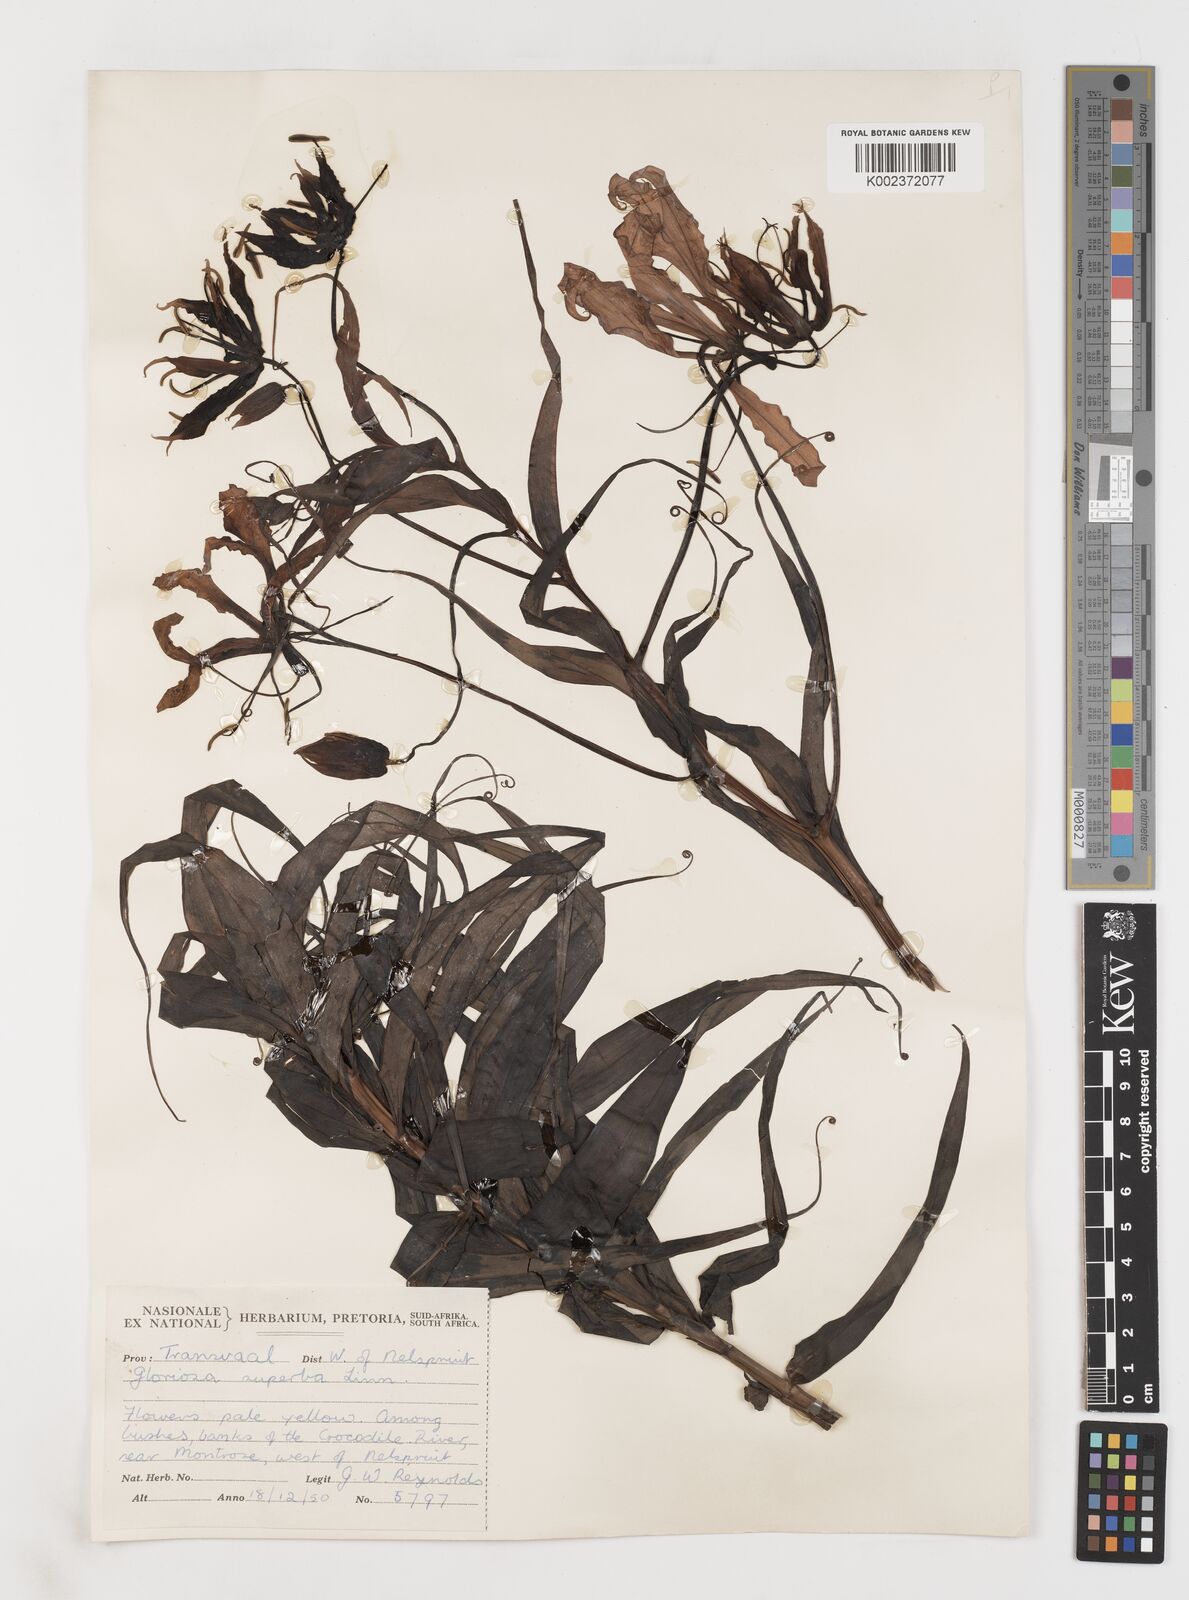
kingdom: Plantae
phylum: Tracheophyta
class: Liliopsida
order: Liliales
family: Colchicaceae
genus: Gloriosa
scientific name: Gloriosa simplex
